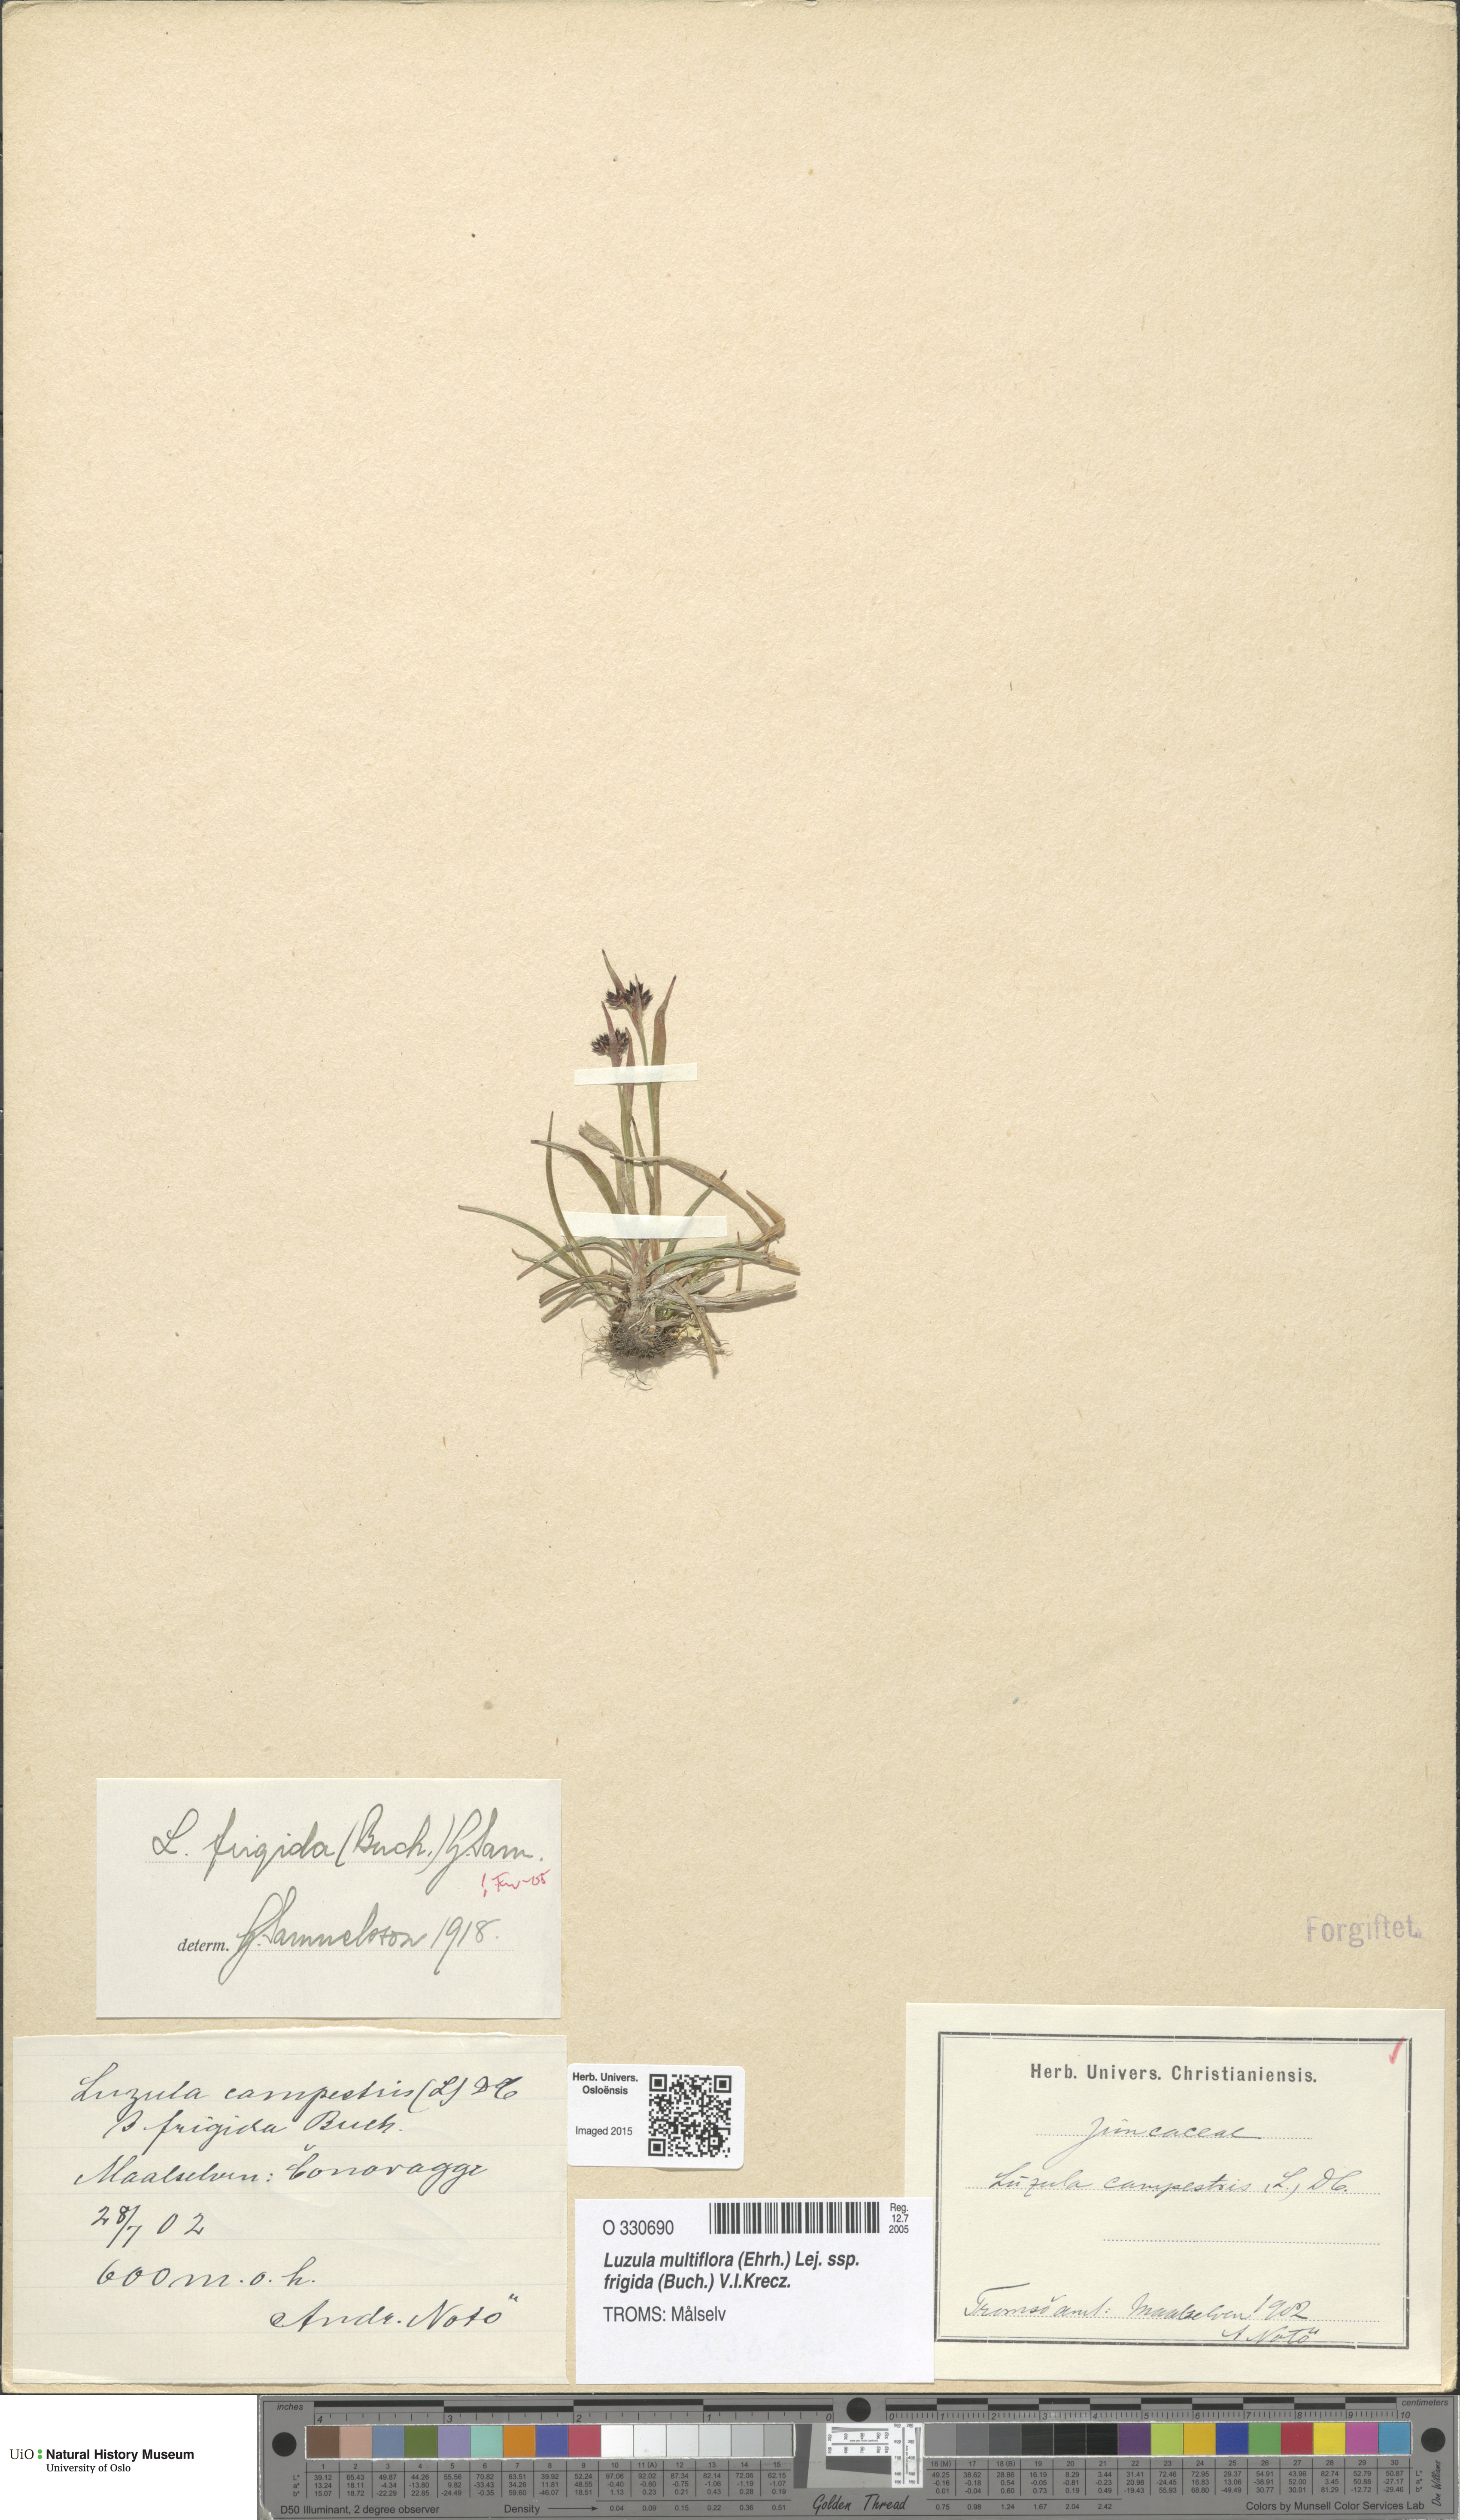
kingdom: Plantae
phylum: Tracheophyta
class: Liliopsida
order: Poales
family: Juncaceae
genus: Luzula
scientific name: Luzula multiflora
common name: Heath wood-rush
